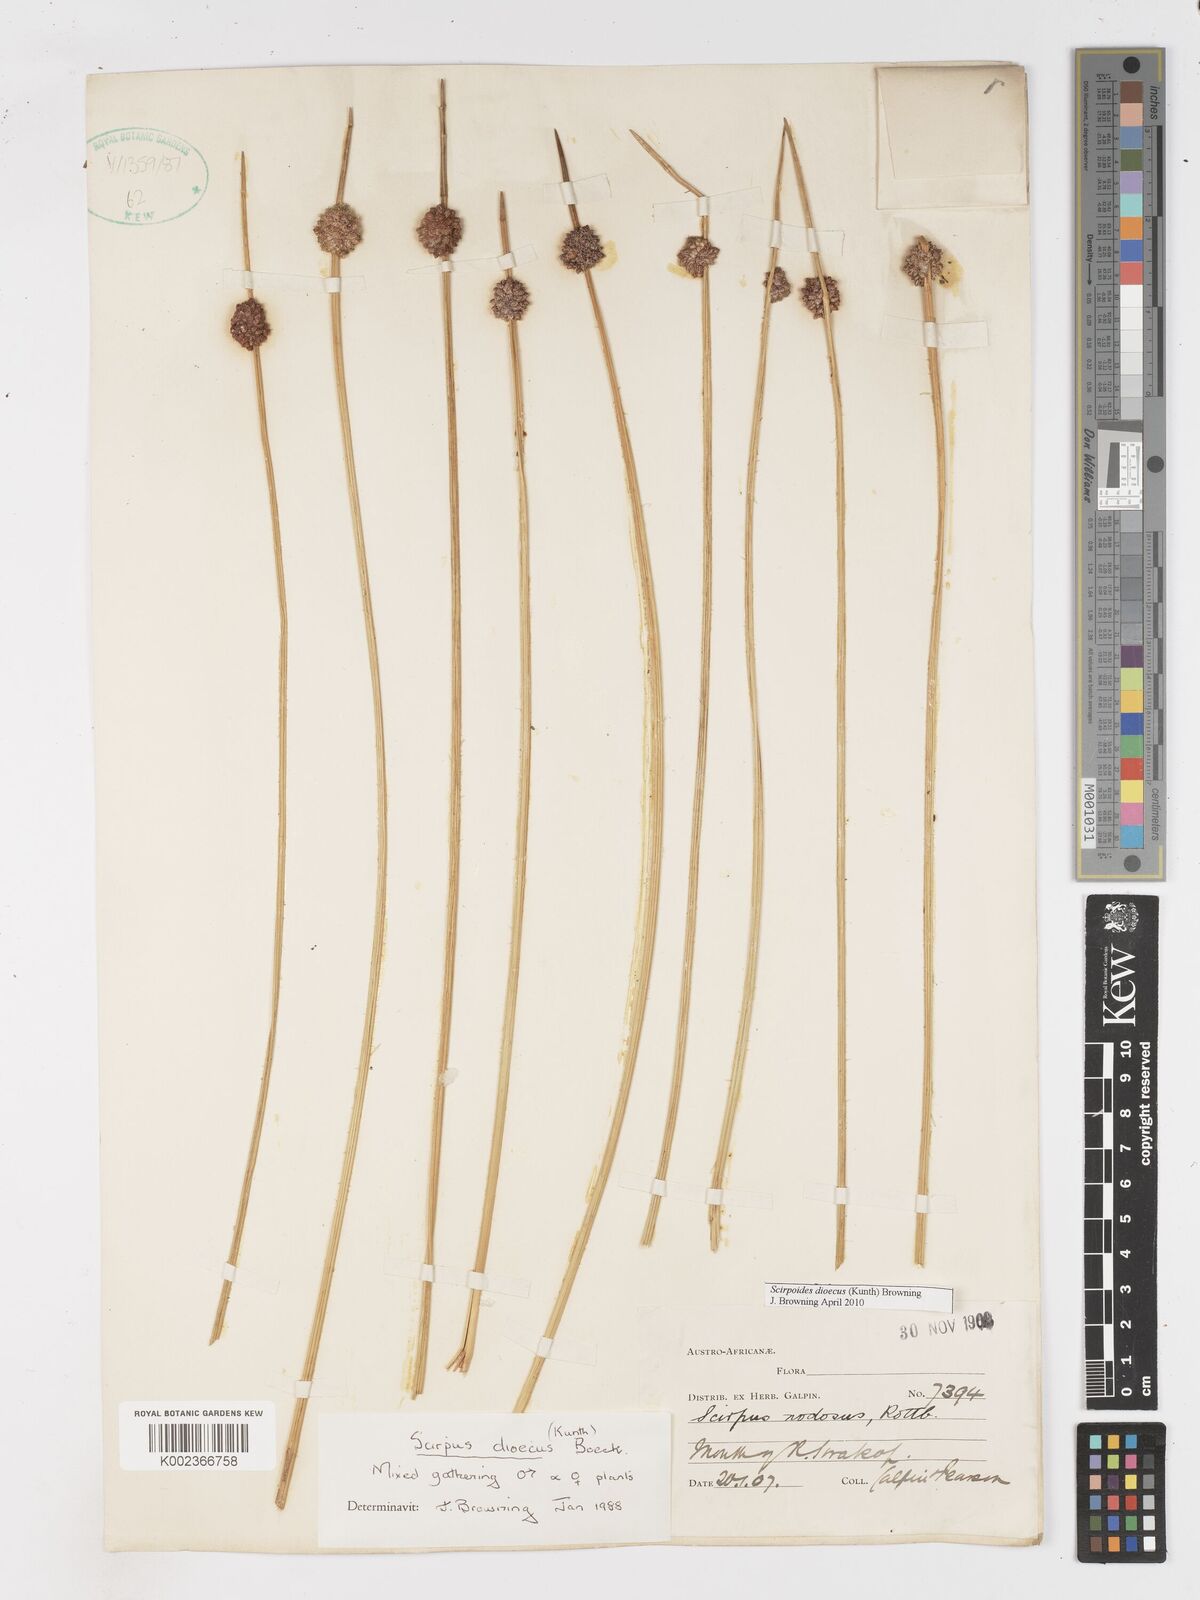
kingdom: Plantae
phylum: Tracheophyta
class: Liliopsida
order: Poales
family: Cyperaceae
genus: Afroscirpoides
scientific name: Afroscirpoides dioeca
